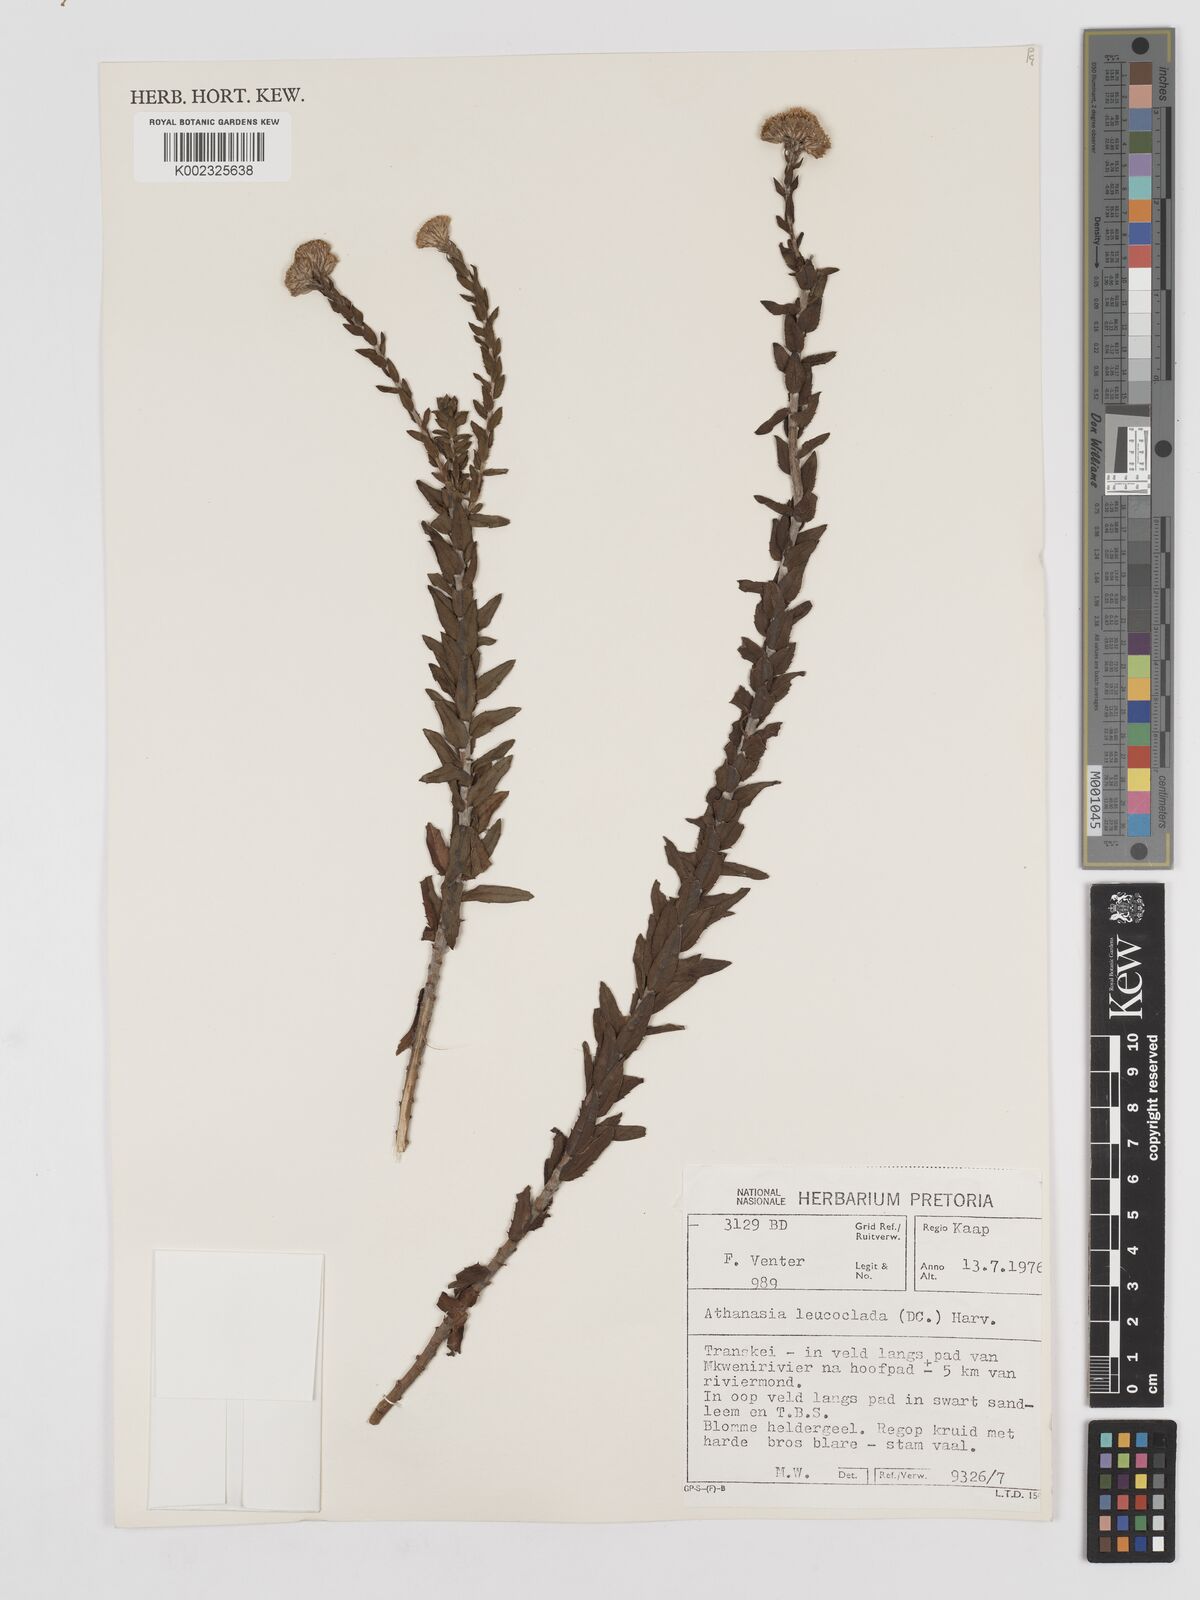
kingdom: Plantae
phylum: Tracheophyta
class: Magnoliopsida
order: Asterales
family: Asteraceae
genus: Inulanthera
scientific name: Inulanthera leucoclada
